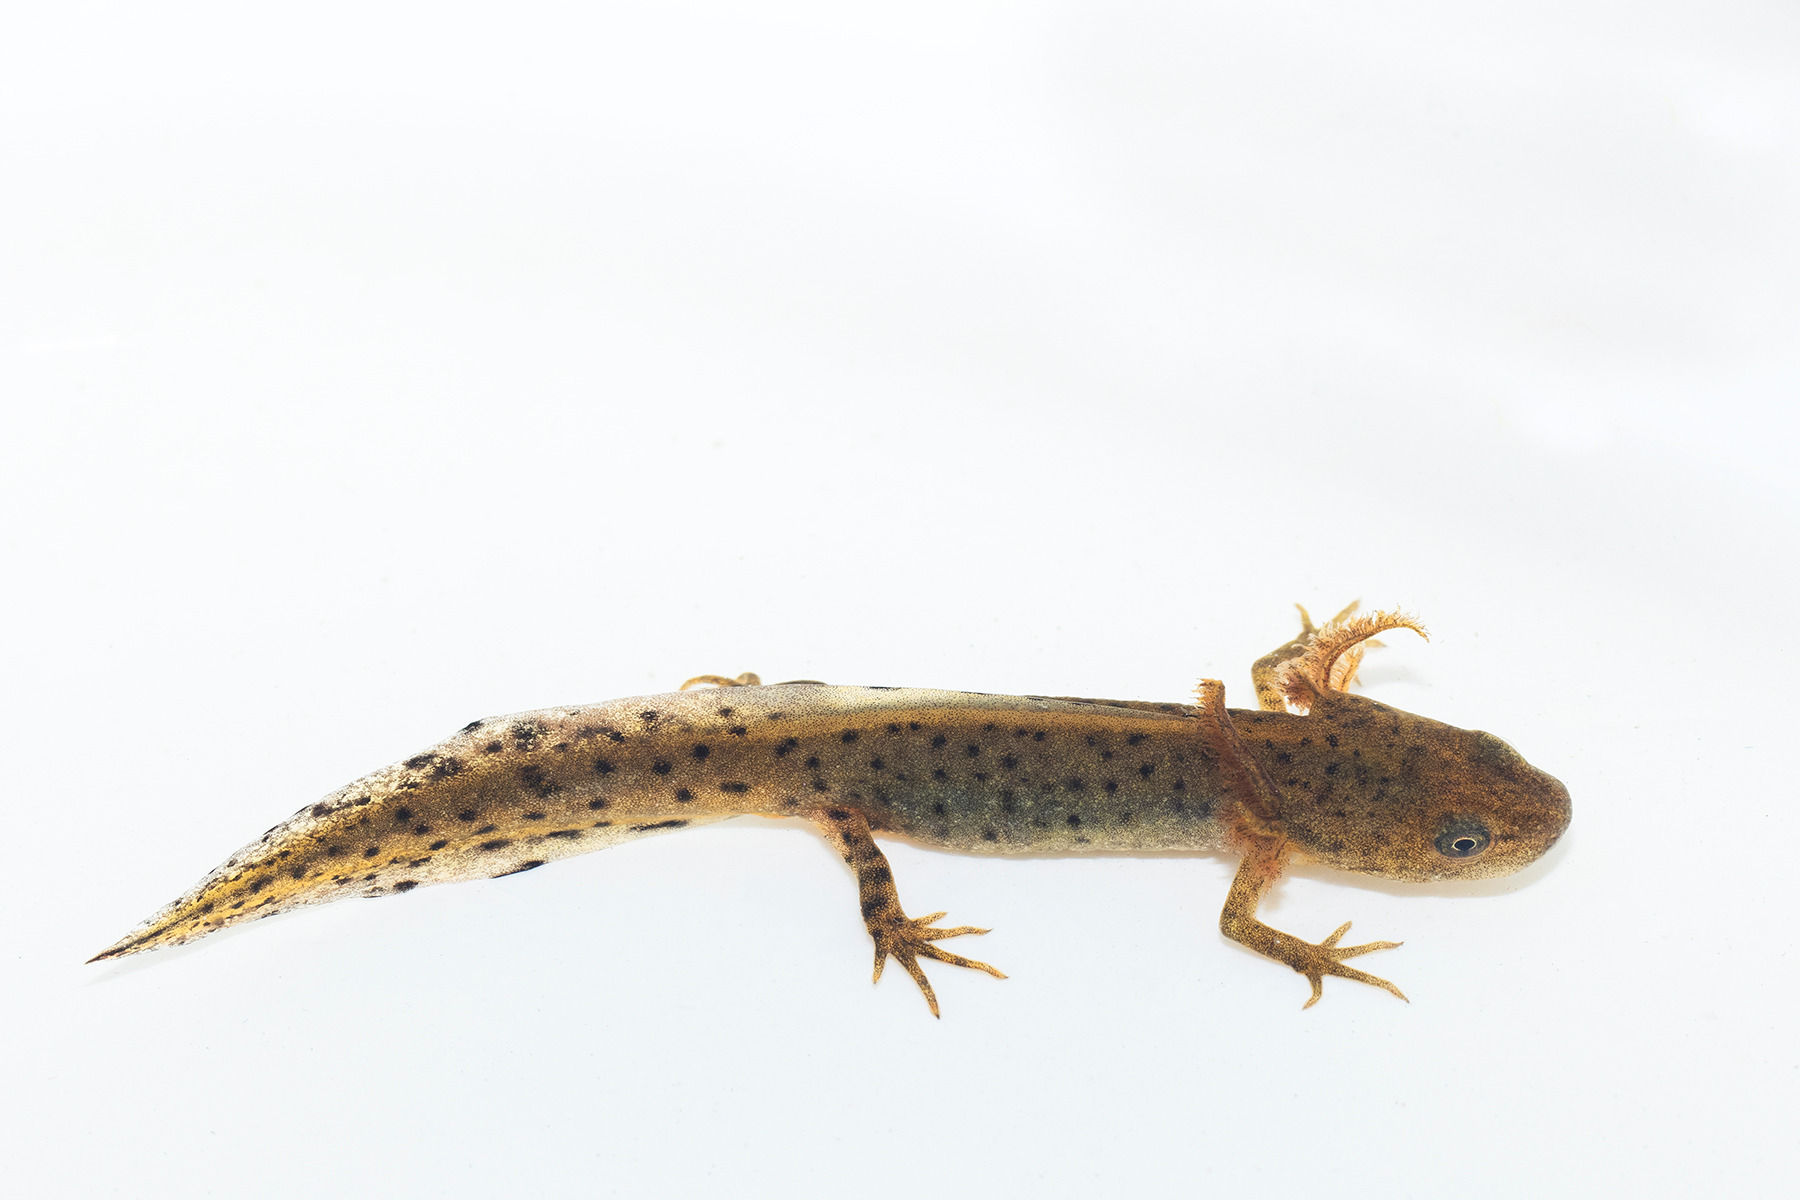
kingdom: Animalia
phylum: Chordata
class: Amphibia
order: Caudata
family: Salamandridae
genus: Triturus
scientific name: Triturus cristatus
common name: Stor vandsalamander
